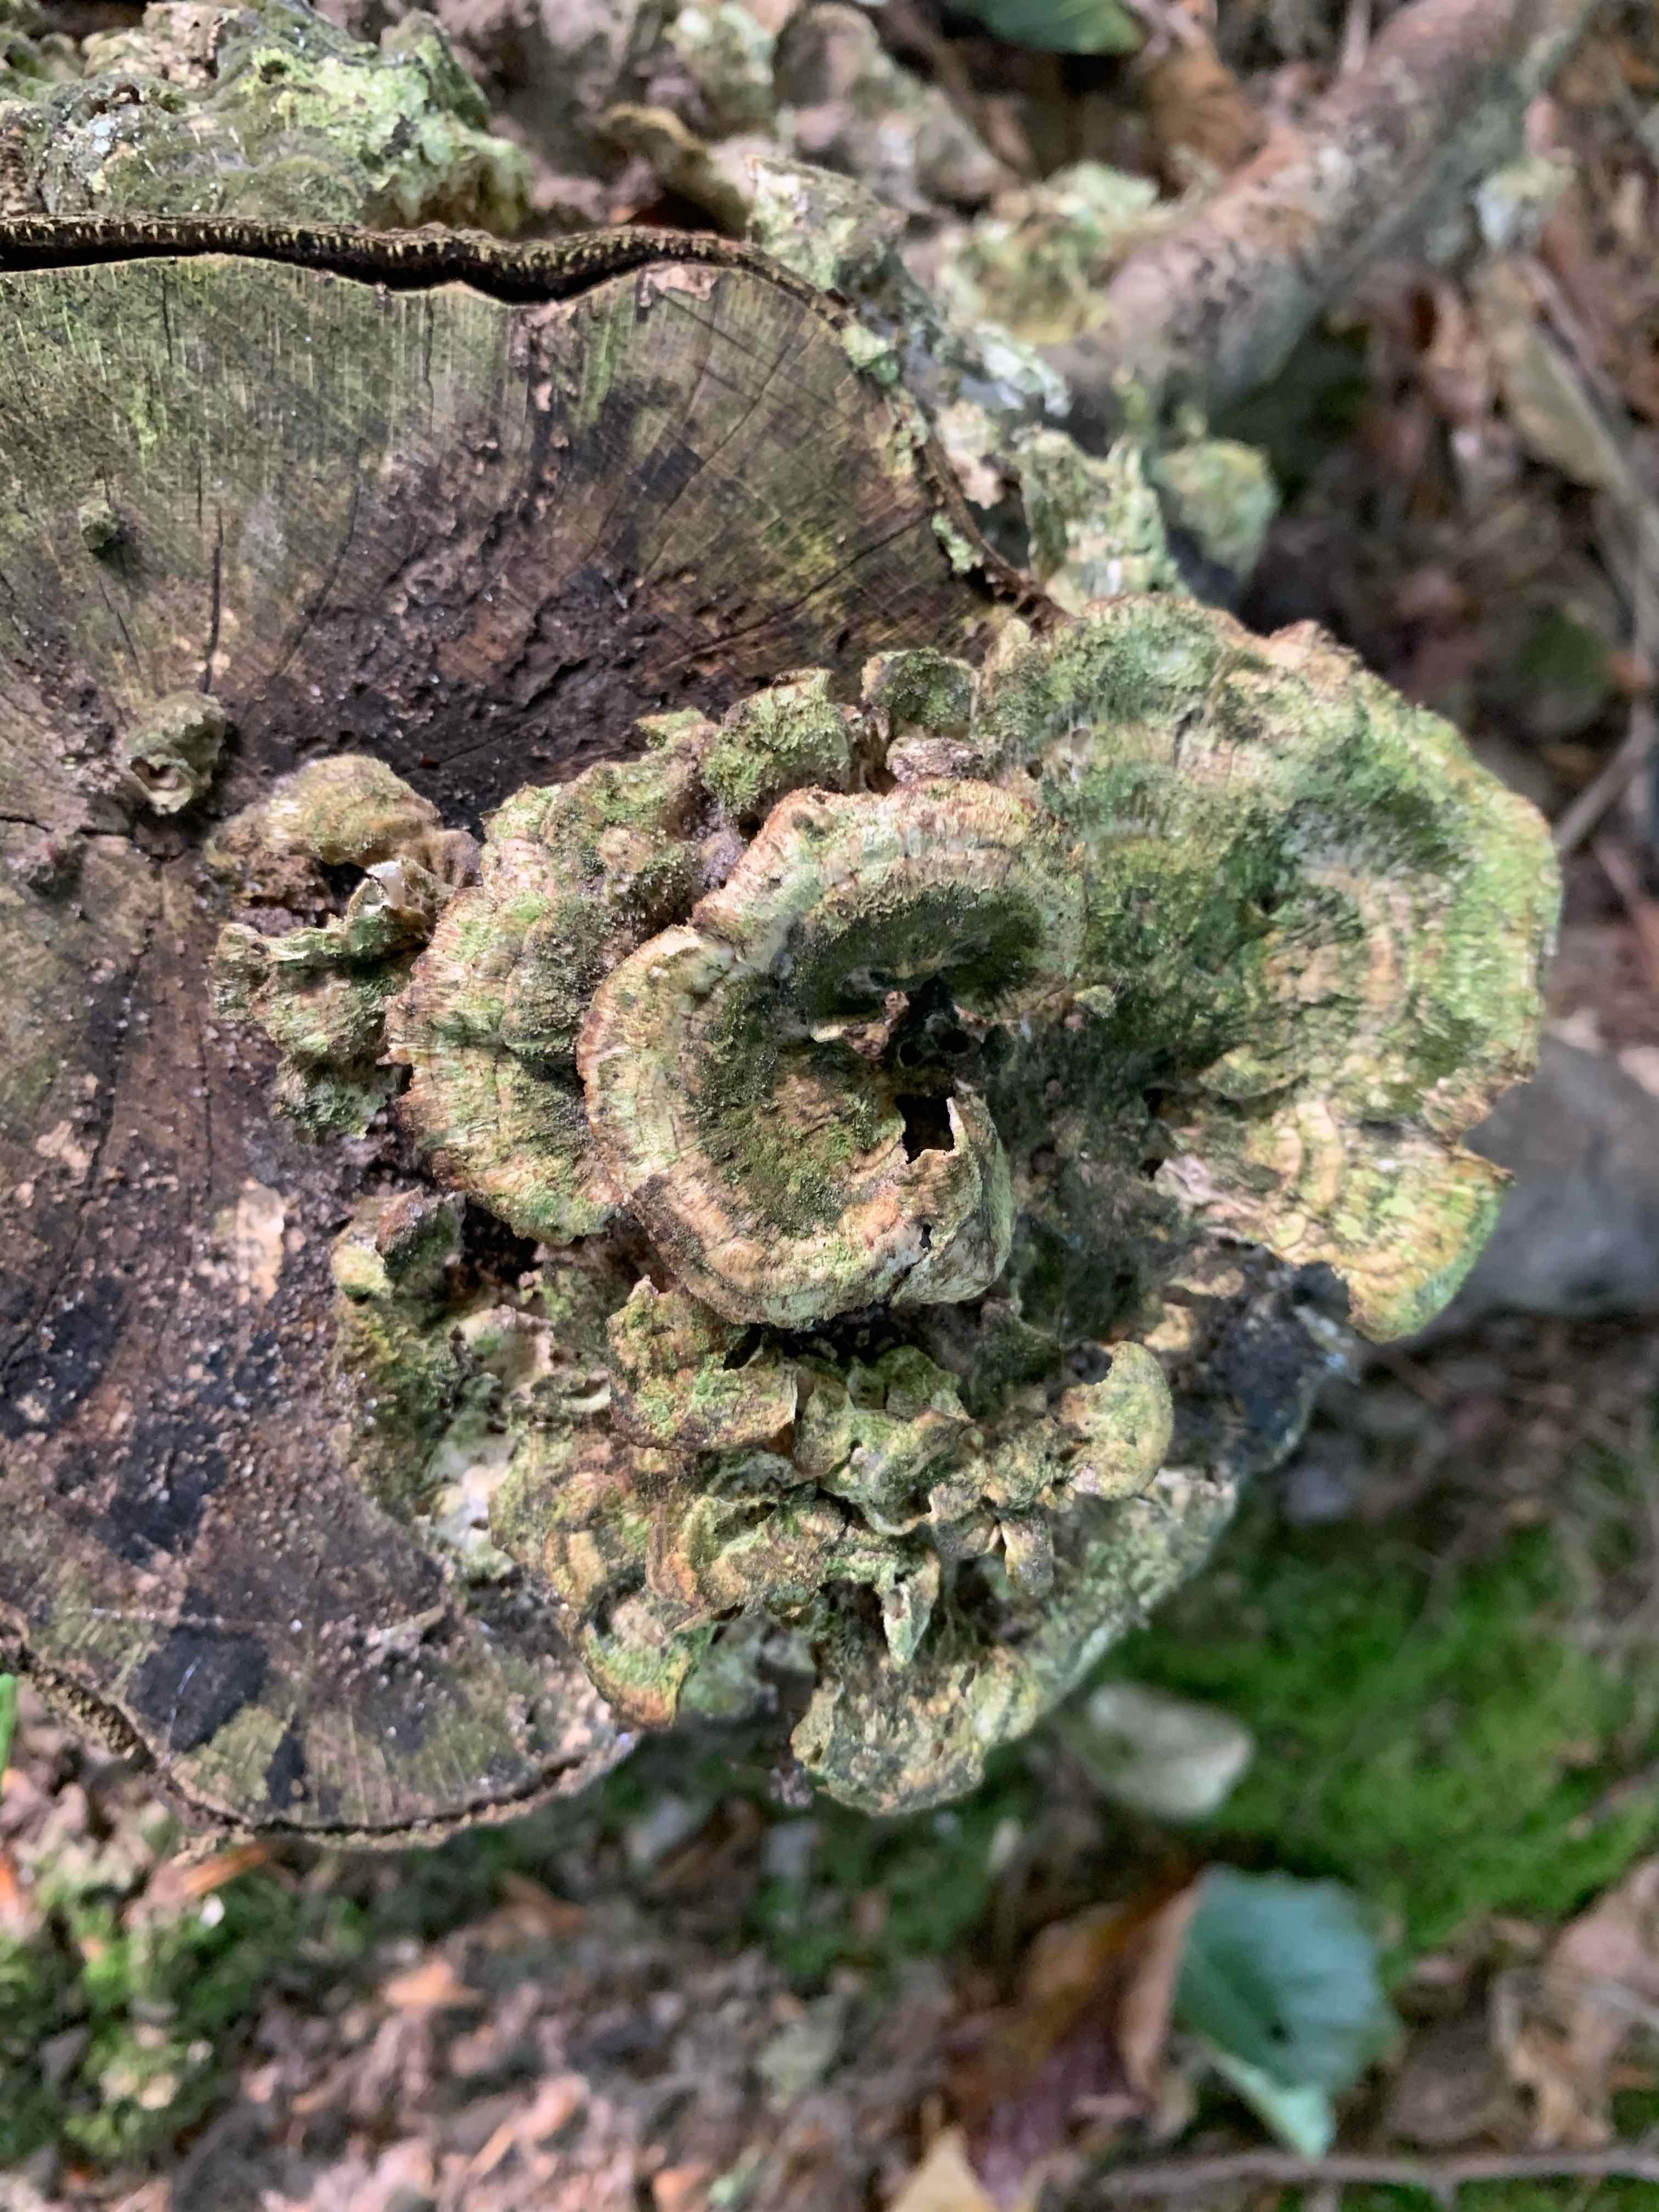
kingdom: Fungi
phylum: Basidiomycota
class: Agaricomycetes
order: Polyporales
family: Polyporaceae
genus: Trametes
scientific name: Trametes
